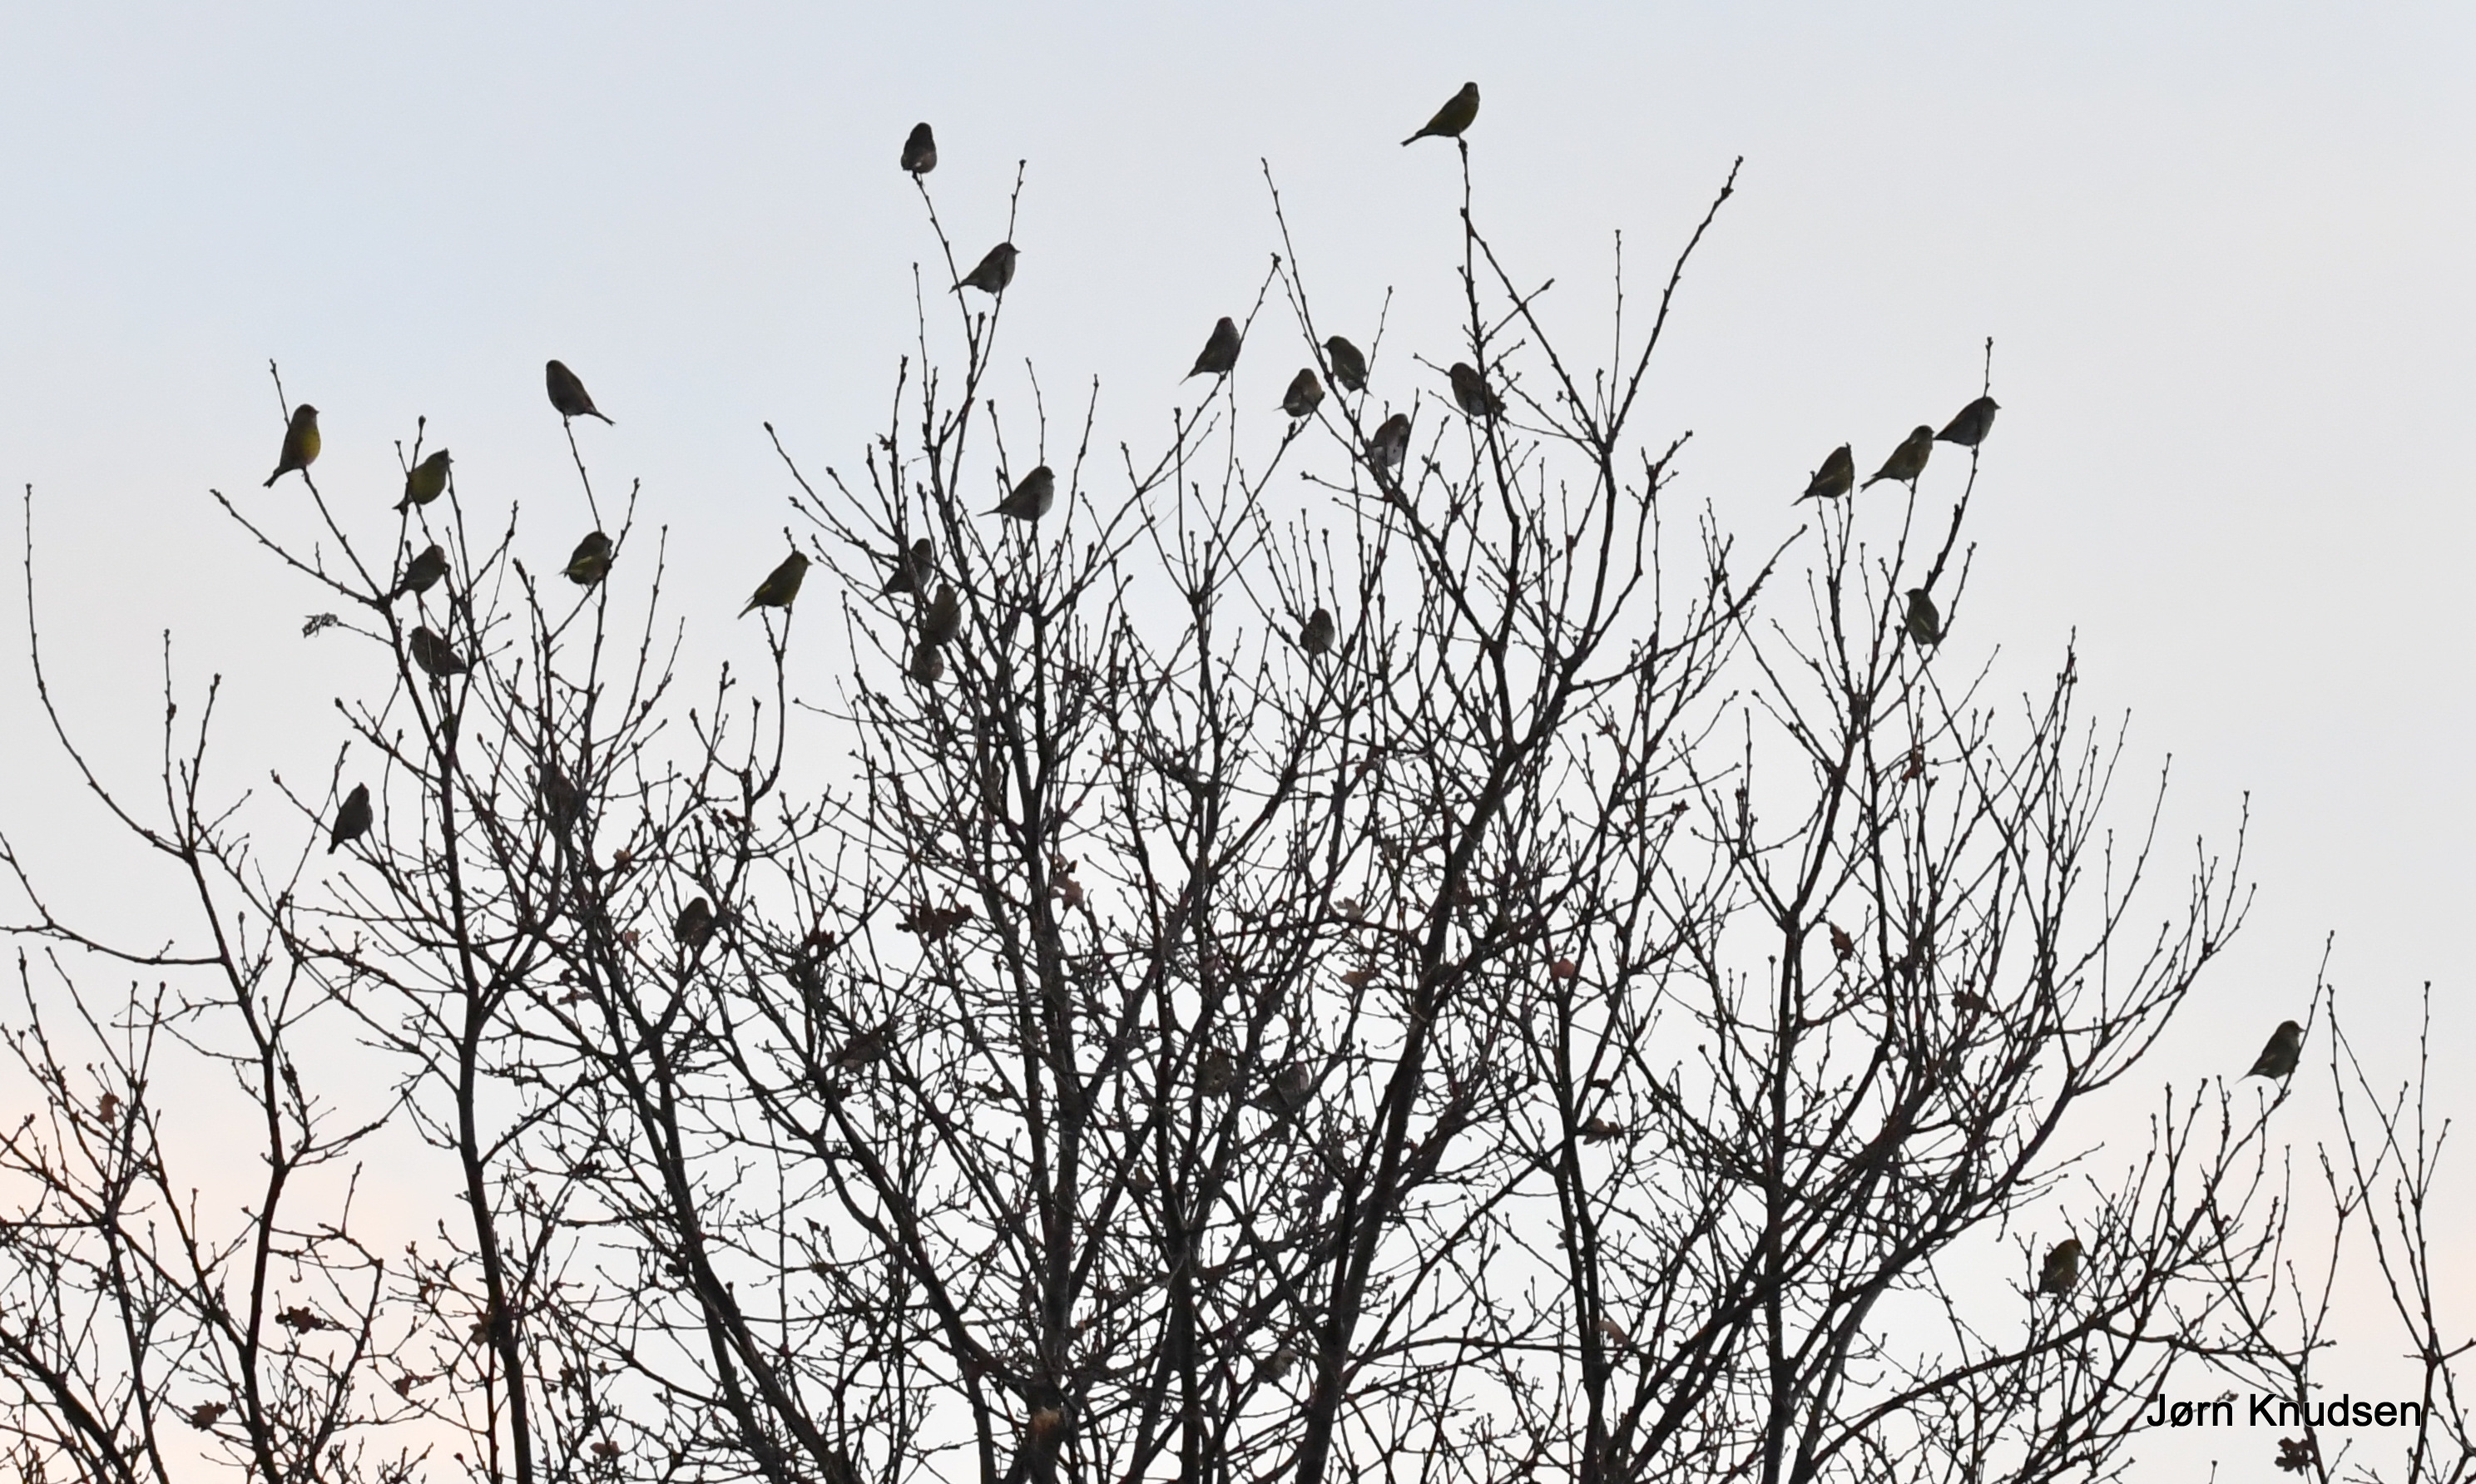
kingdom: Plantae
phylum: Tracheophyta
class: Liliopsida
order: Poales
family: Poaceae
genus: Chloris
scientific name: Chloris chloris
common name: Grønirisk
